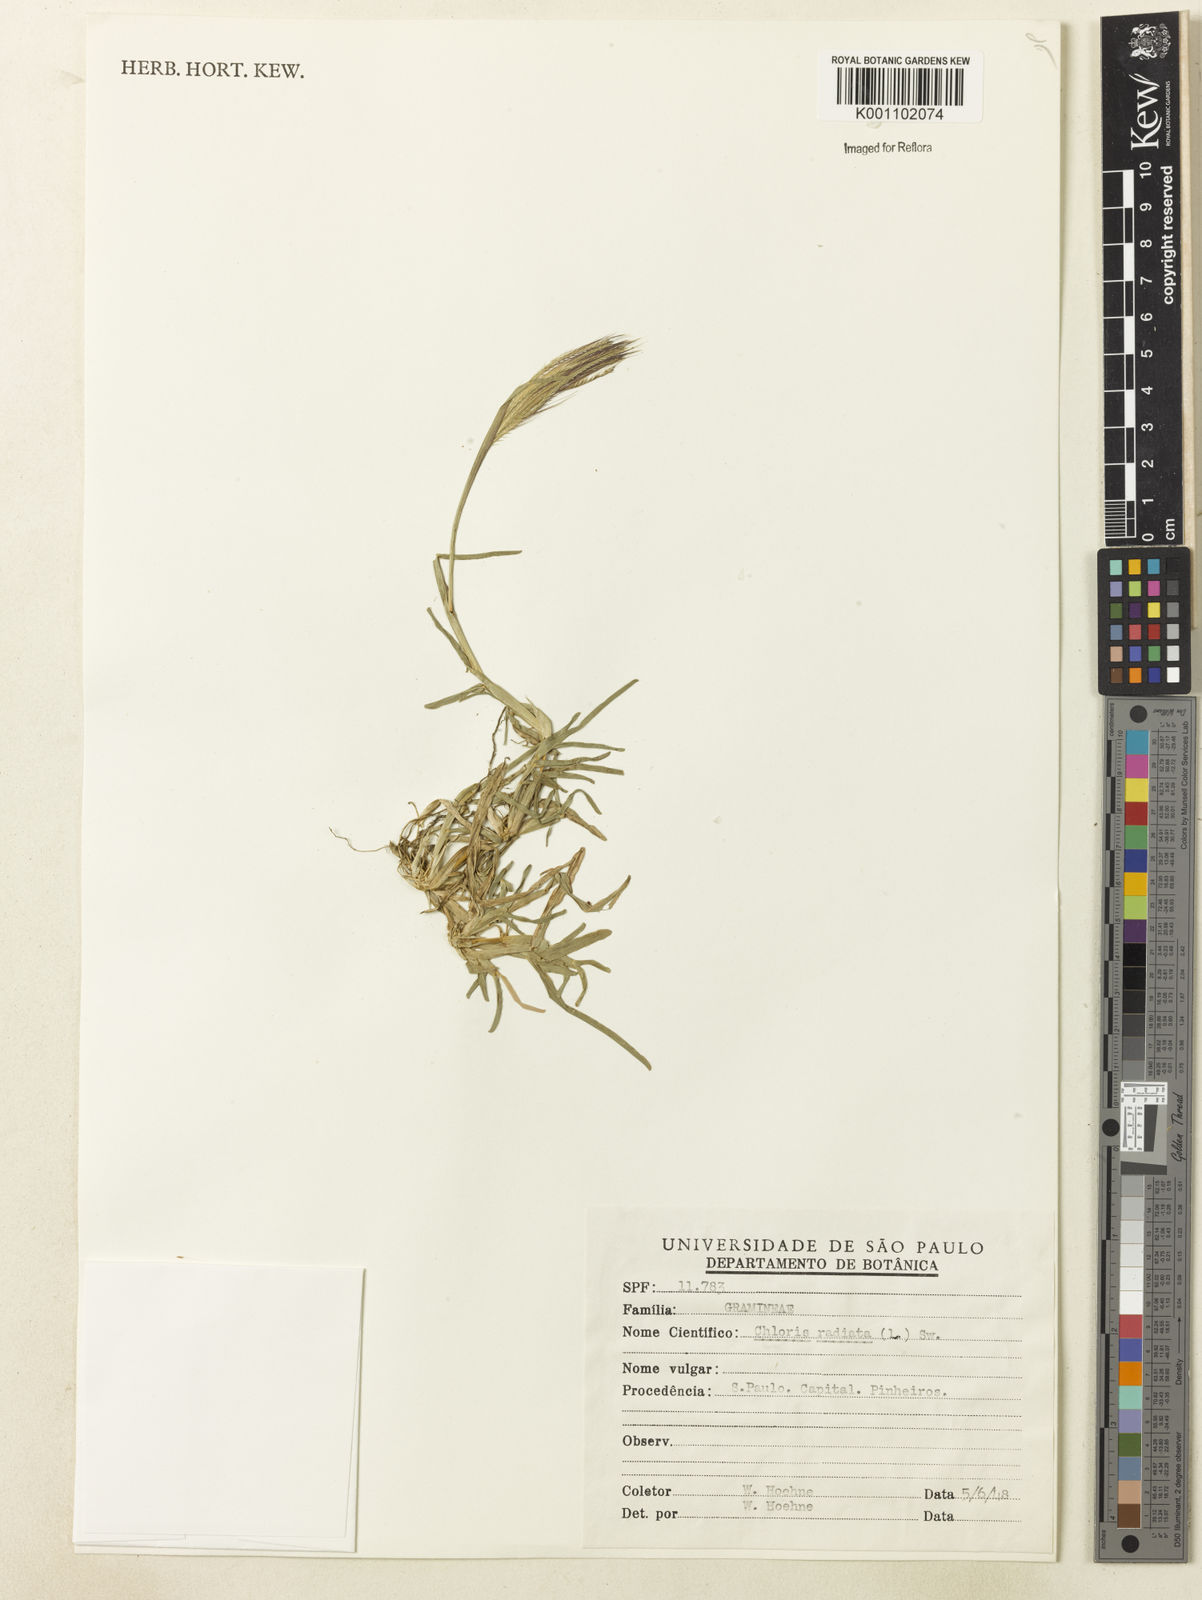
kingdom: Plantae
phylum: Tracheophyta
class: Liliopsida
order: Poales
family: Poaceae
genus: Chloris
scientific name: Chloris radiata
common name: Radiate fingergrass
